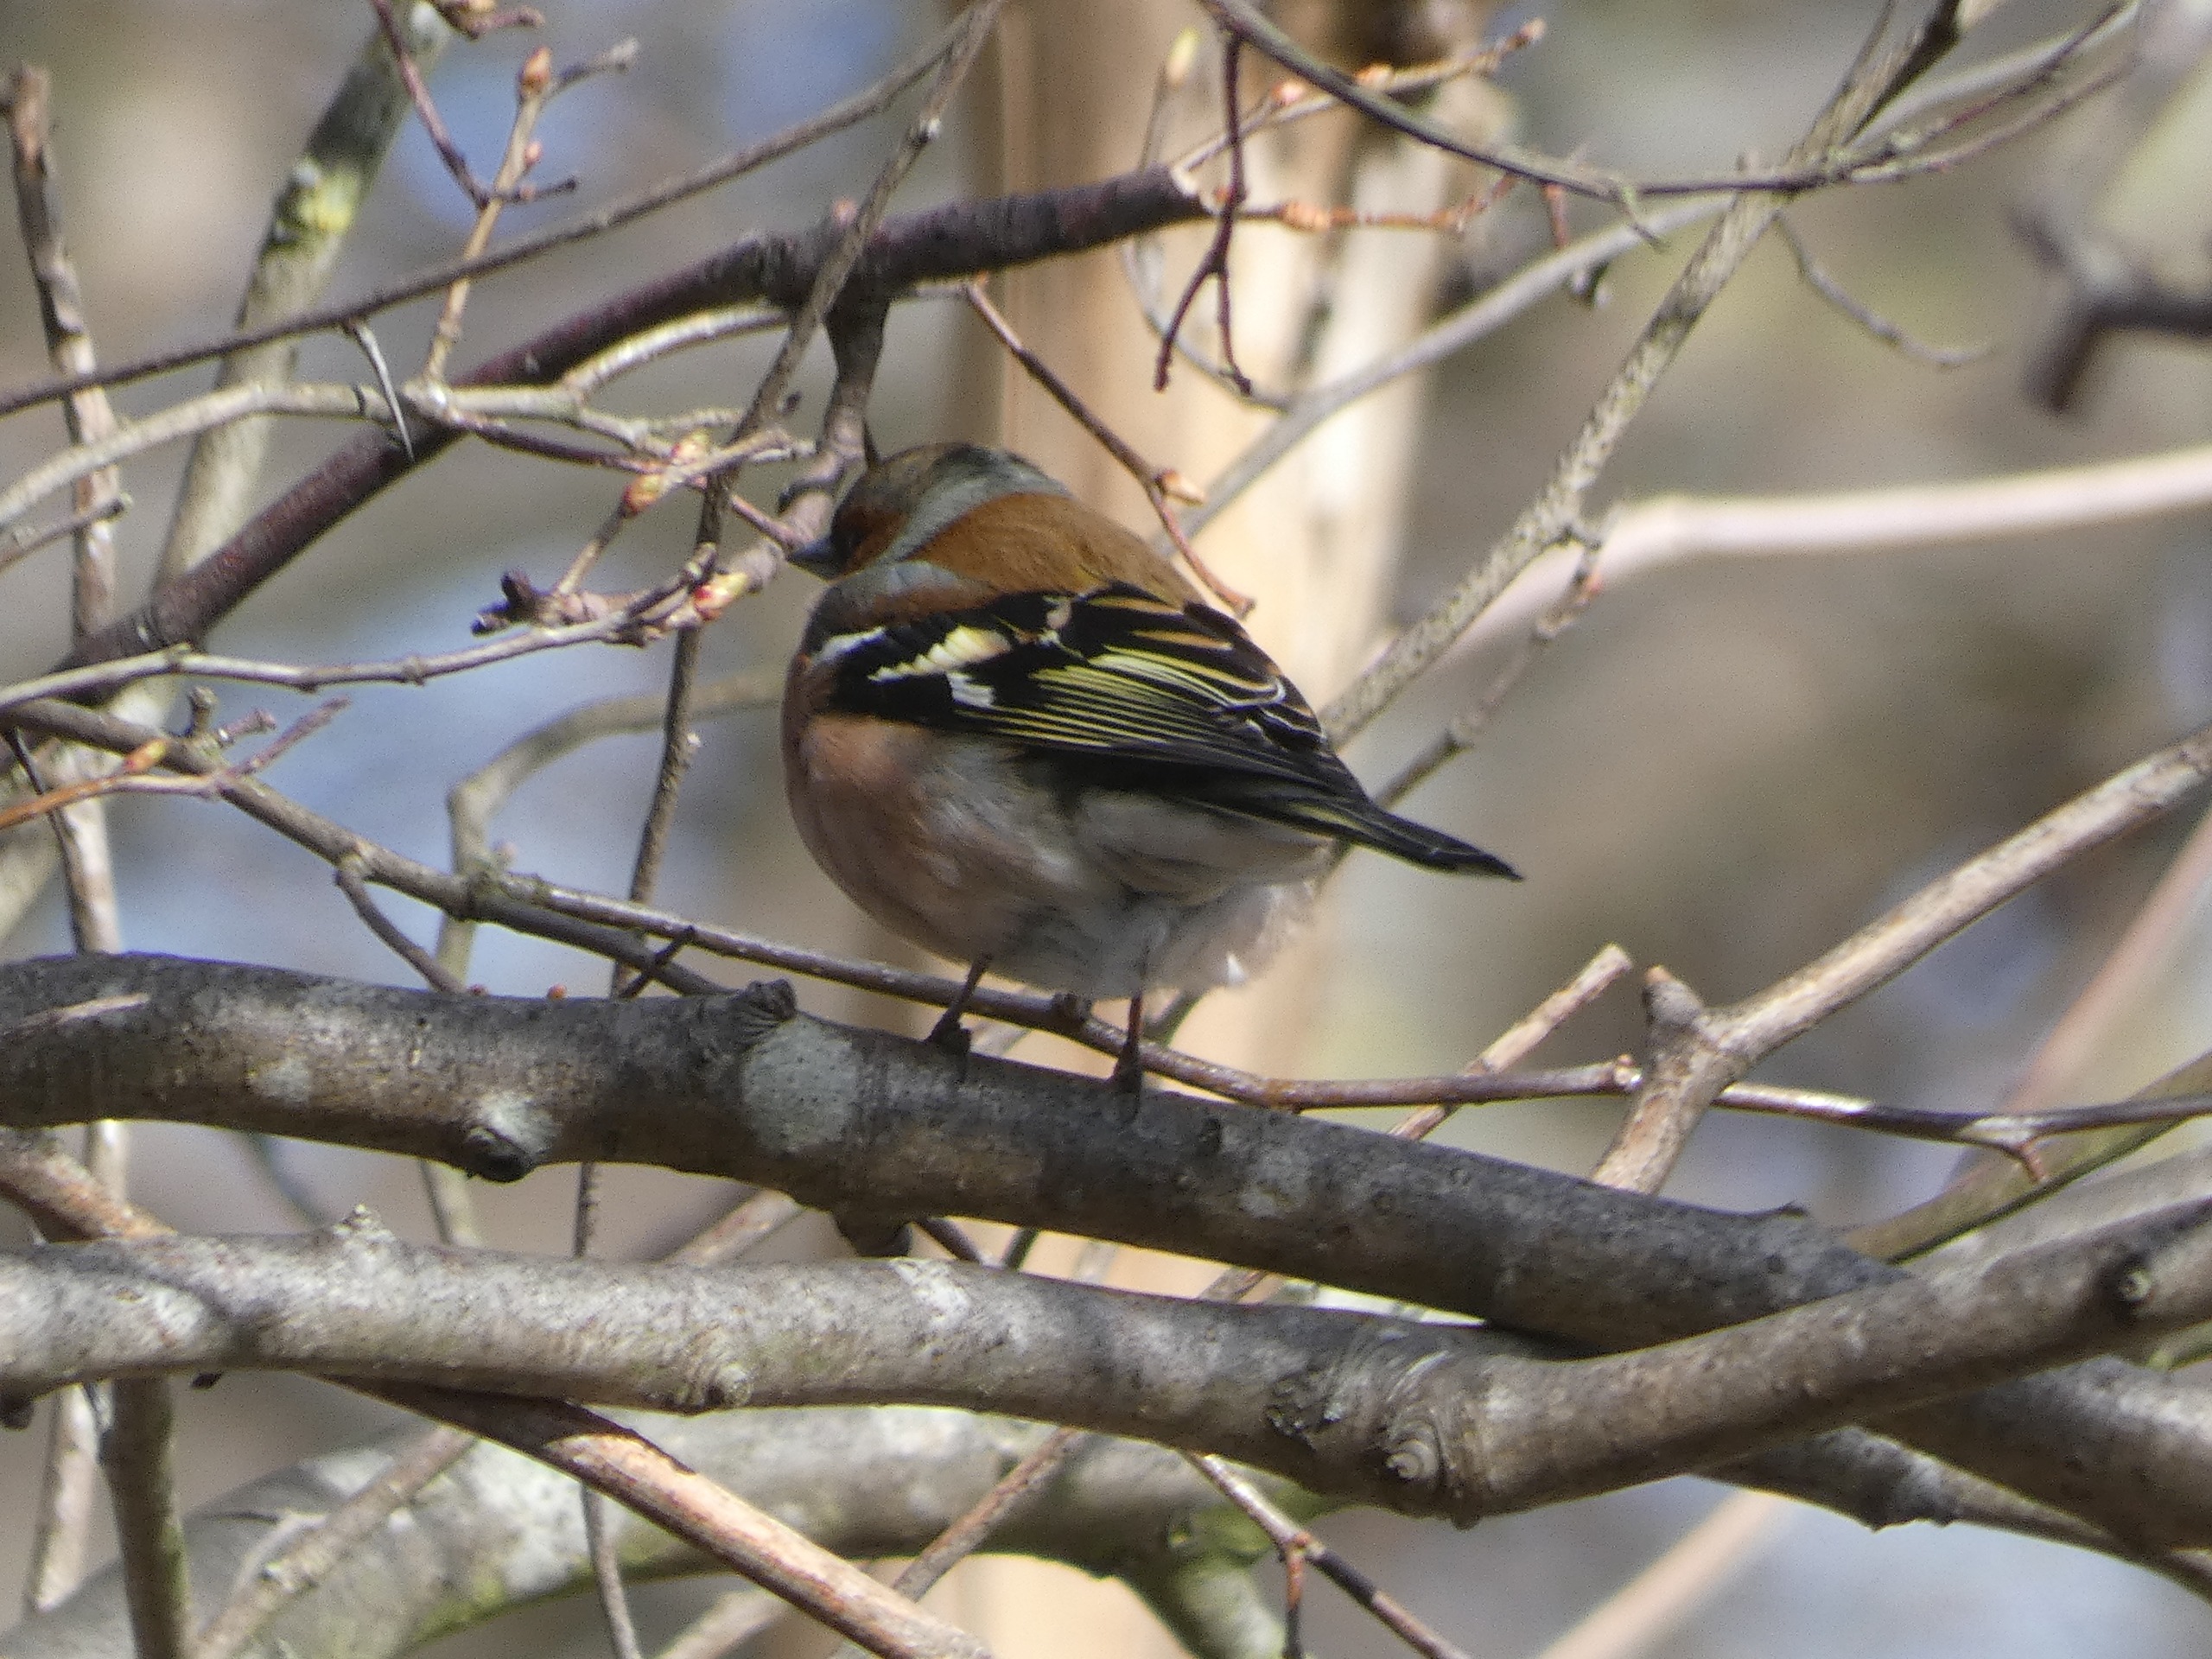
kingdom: Animalia
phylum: Chordata
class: Aves
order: Passeriformes
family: Fringillidae
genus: Fringilla
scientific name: Fringilla coelebs
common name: Bogfinke
